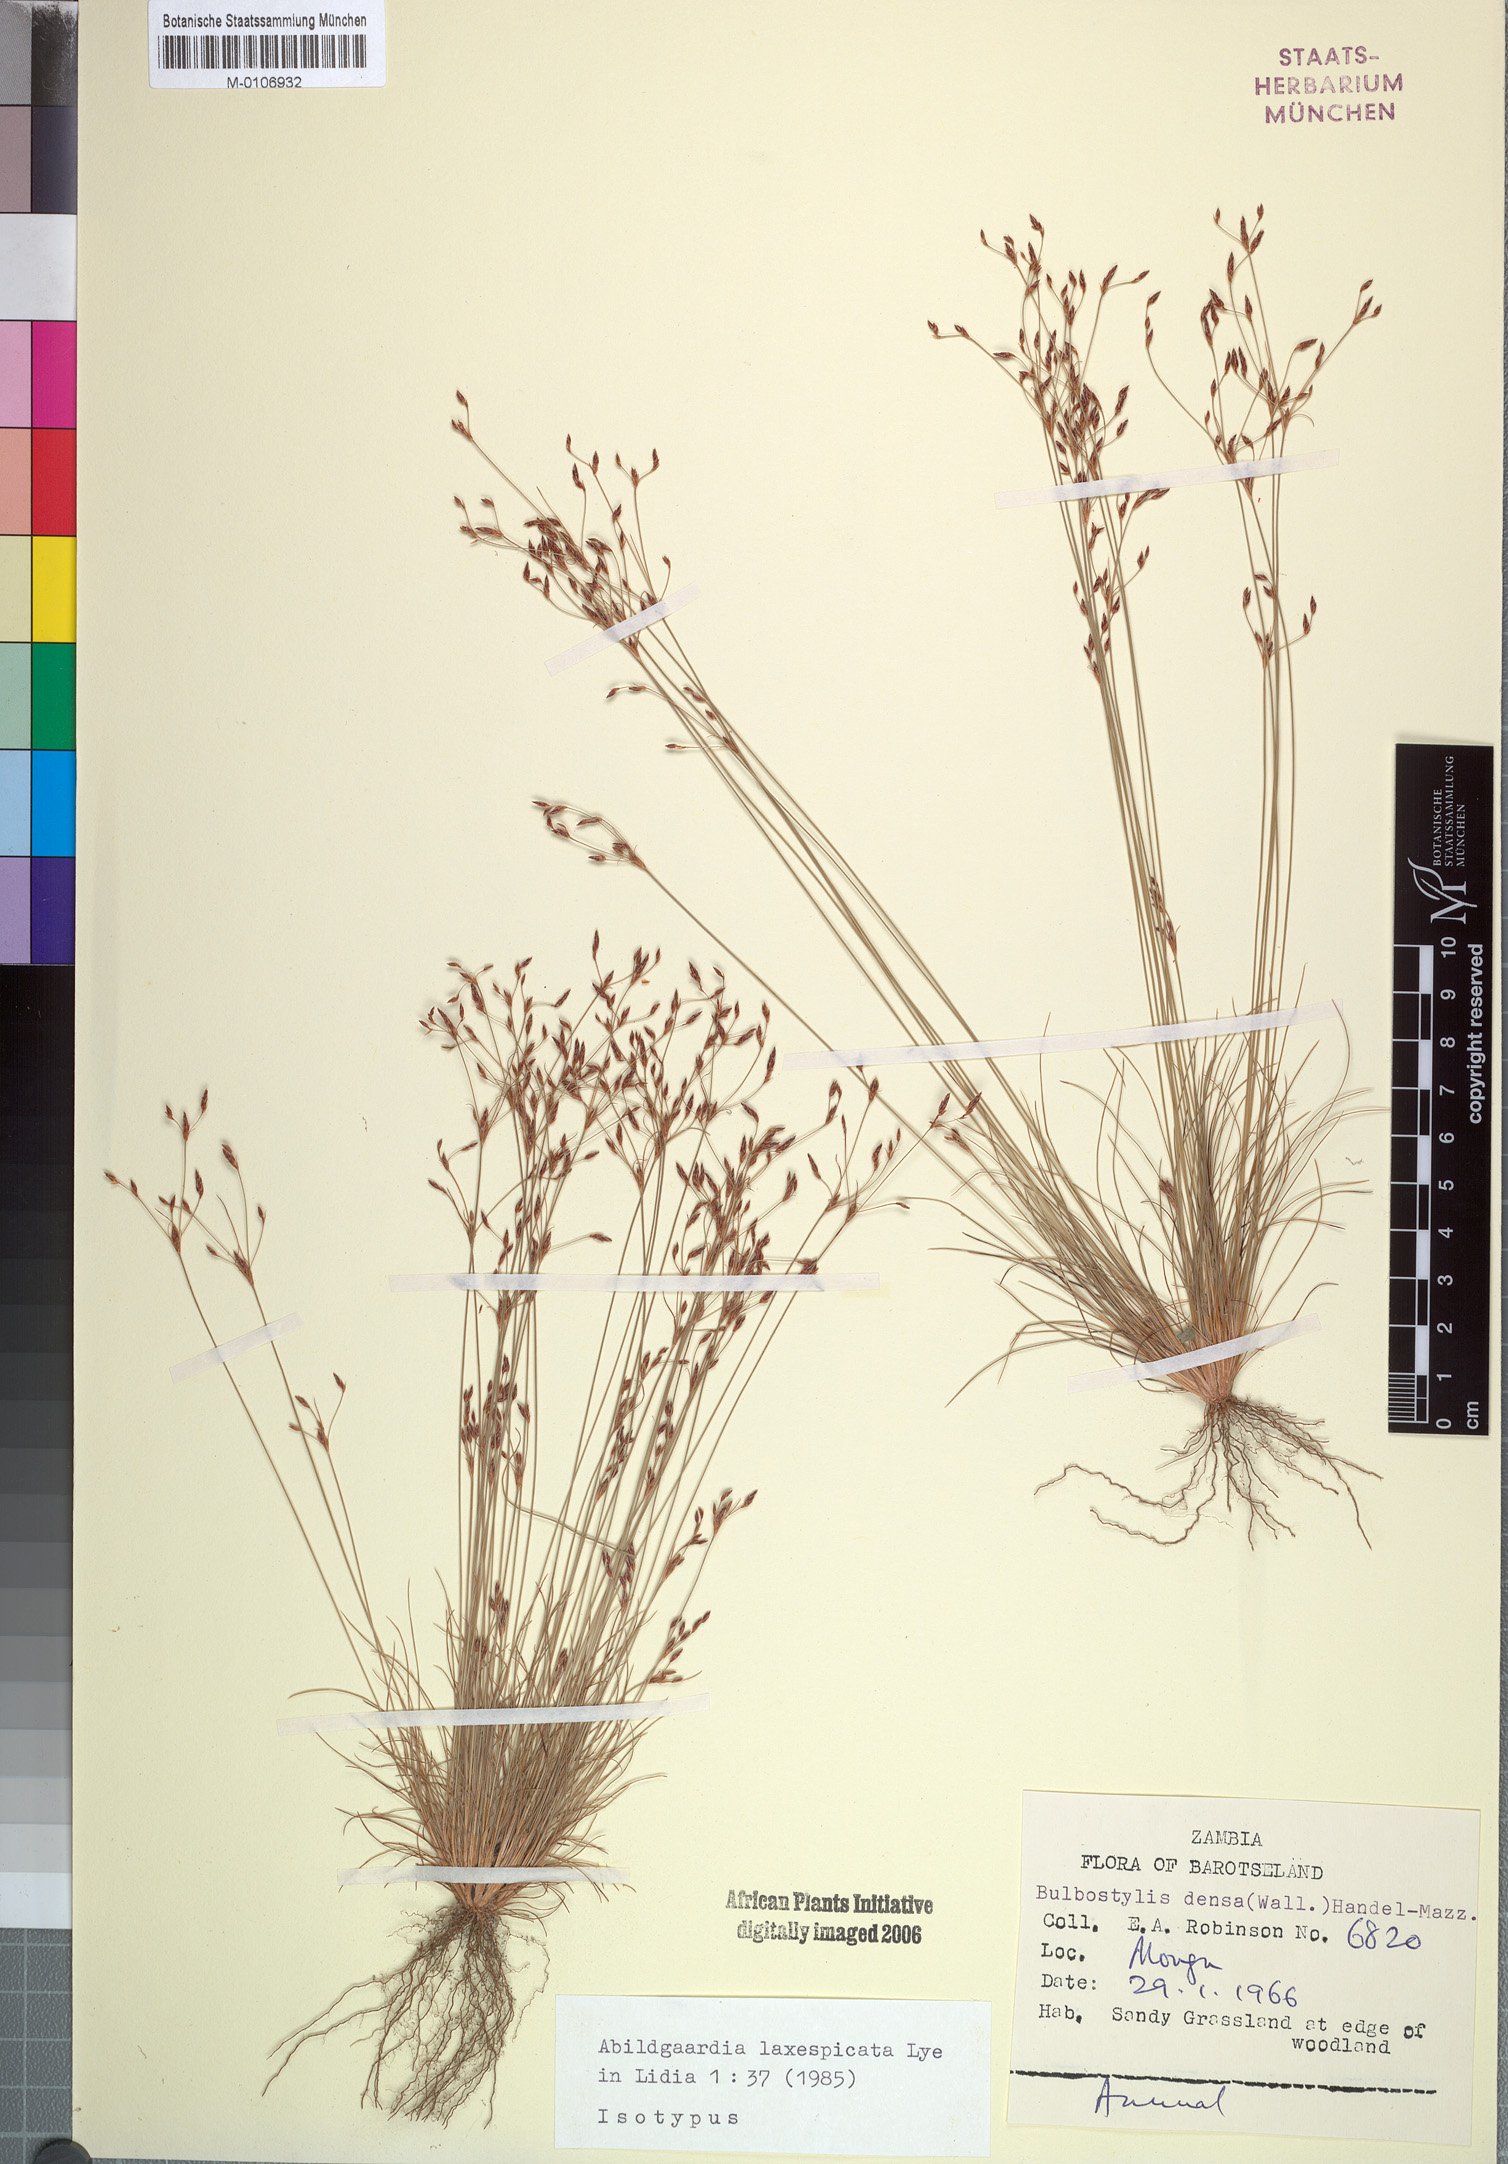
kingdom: Plantae
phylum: Tracheophyta
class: Liliopsida
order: Poales
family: Cyperaceae
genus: Abildgaardia
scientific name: Abildgaardia laxespicata
